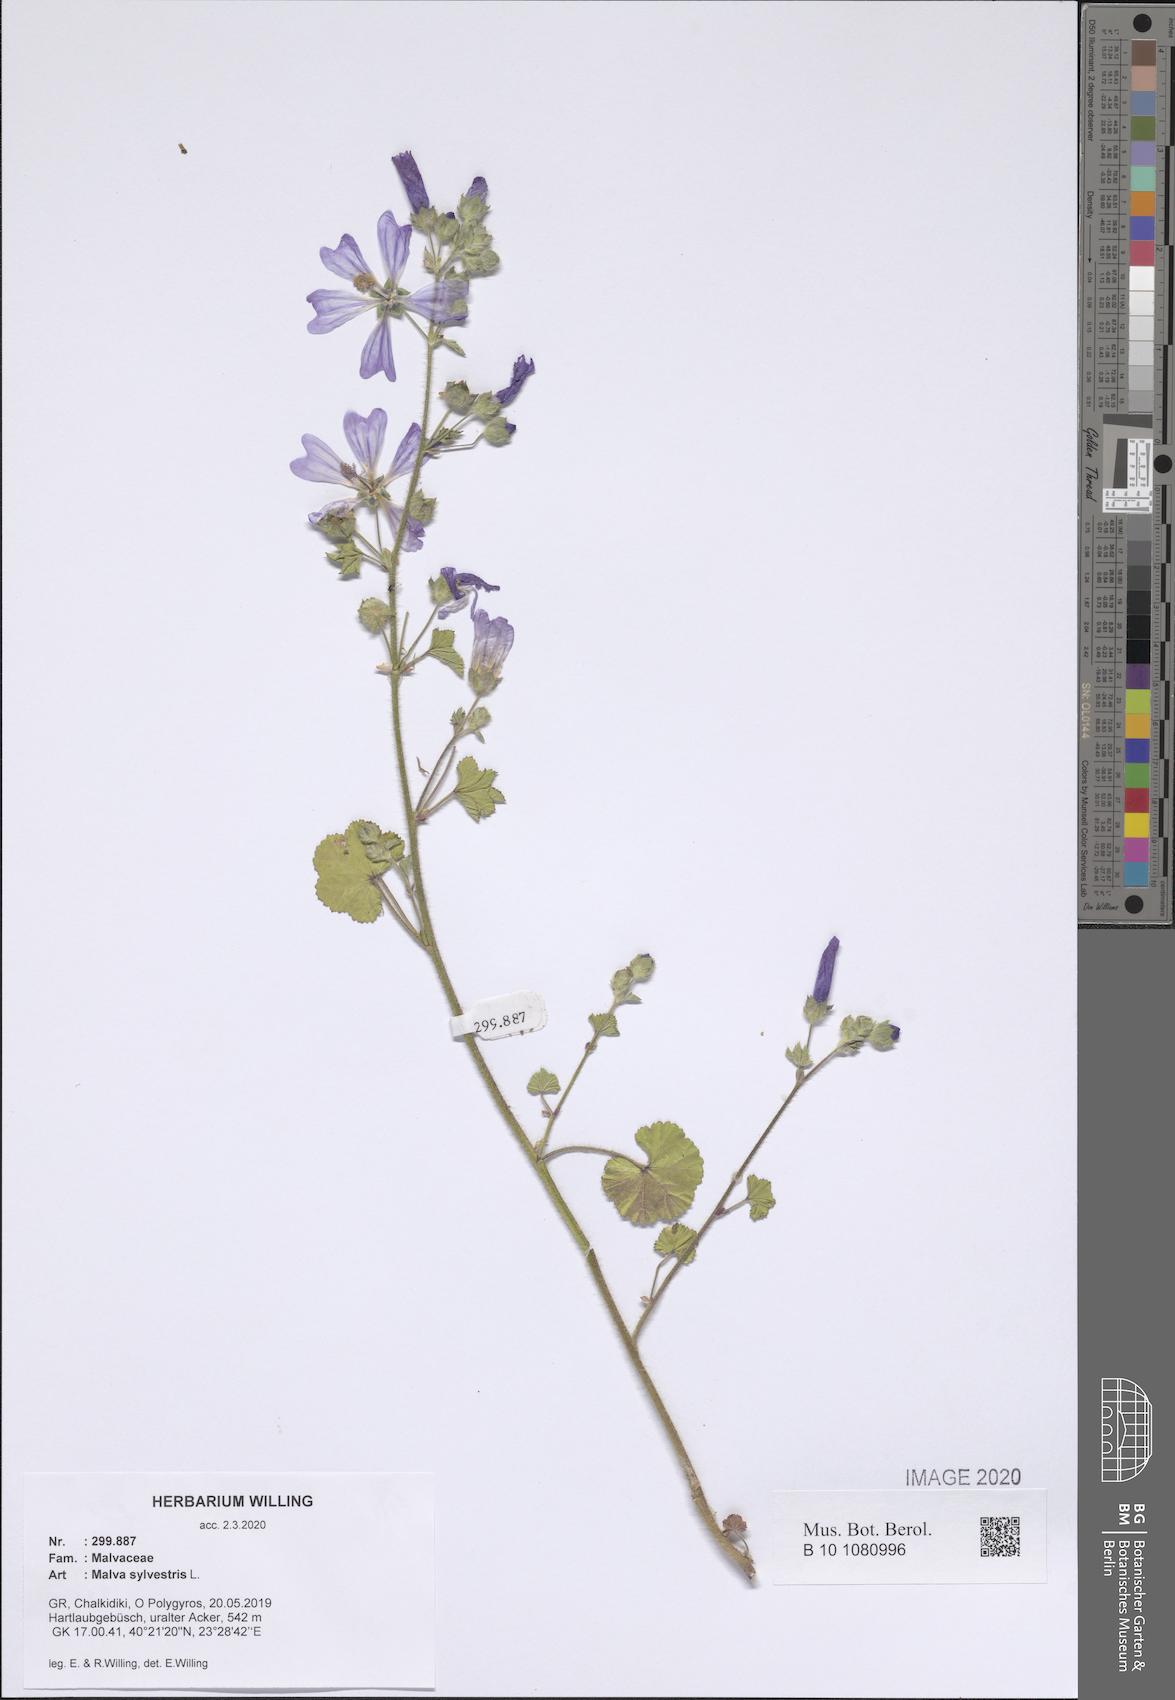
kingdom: Plantae
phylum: Tracheophyta
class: Magnoliopsida
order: Malvales
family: Malvaceae
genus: Malva
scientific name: Malva sylvestris
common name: Common mallow
